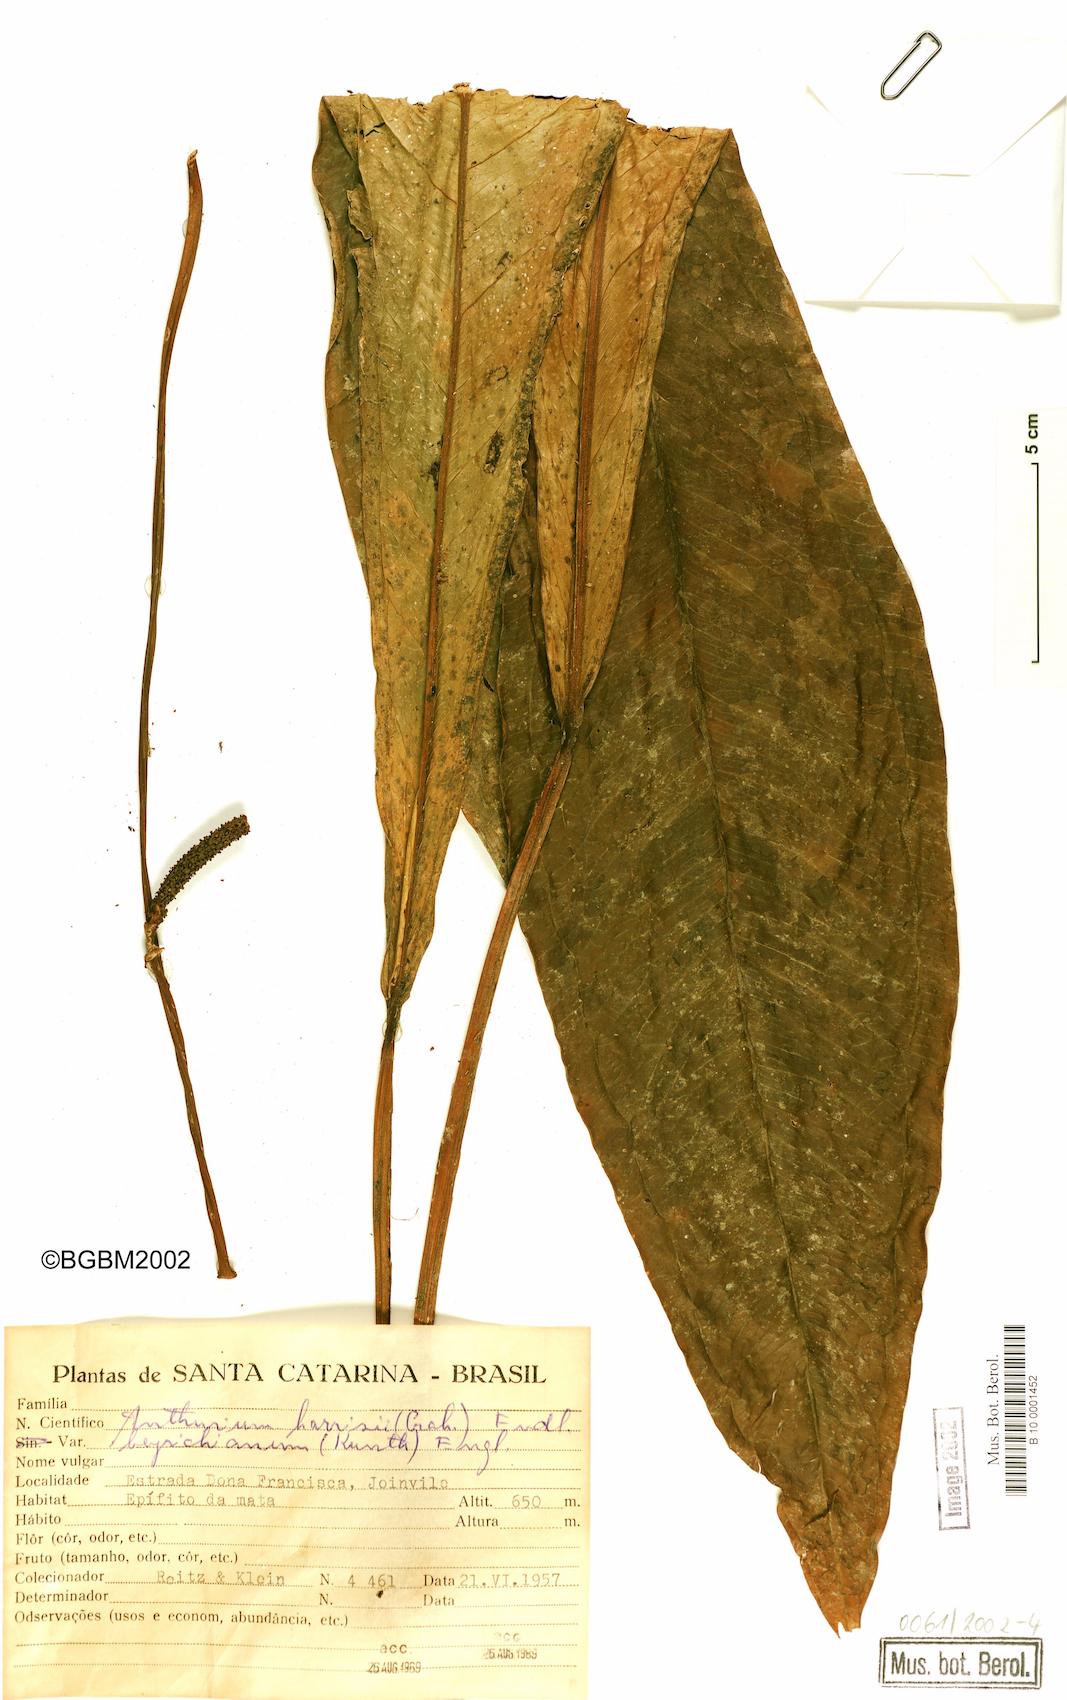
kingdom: Plantae
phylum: Tracheophyta
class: Liliopsida
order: Alismatales
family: Araceae
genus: Anthurium
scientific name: Anthurium intermedium
